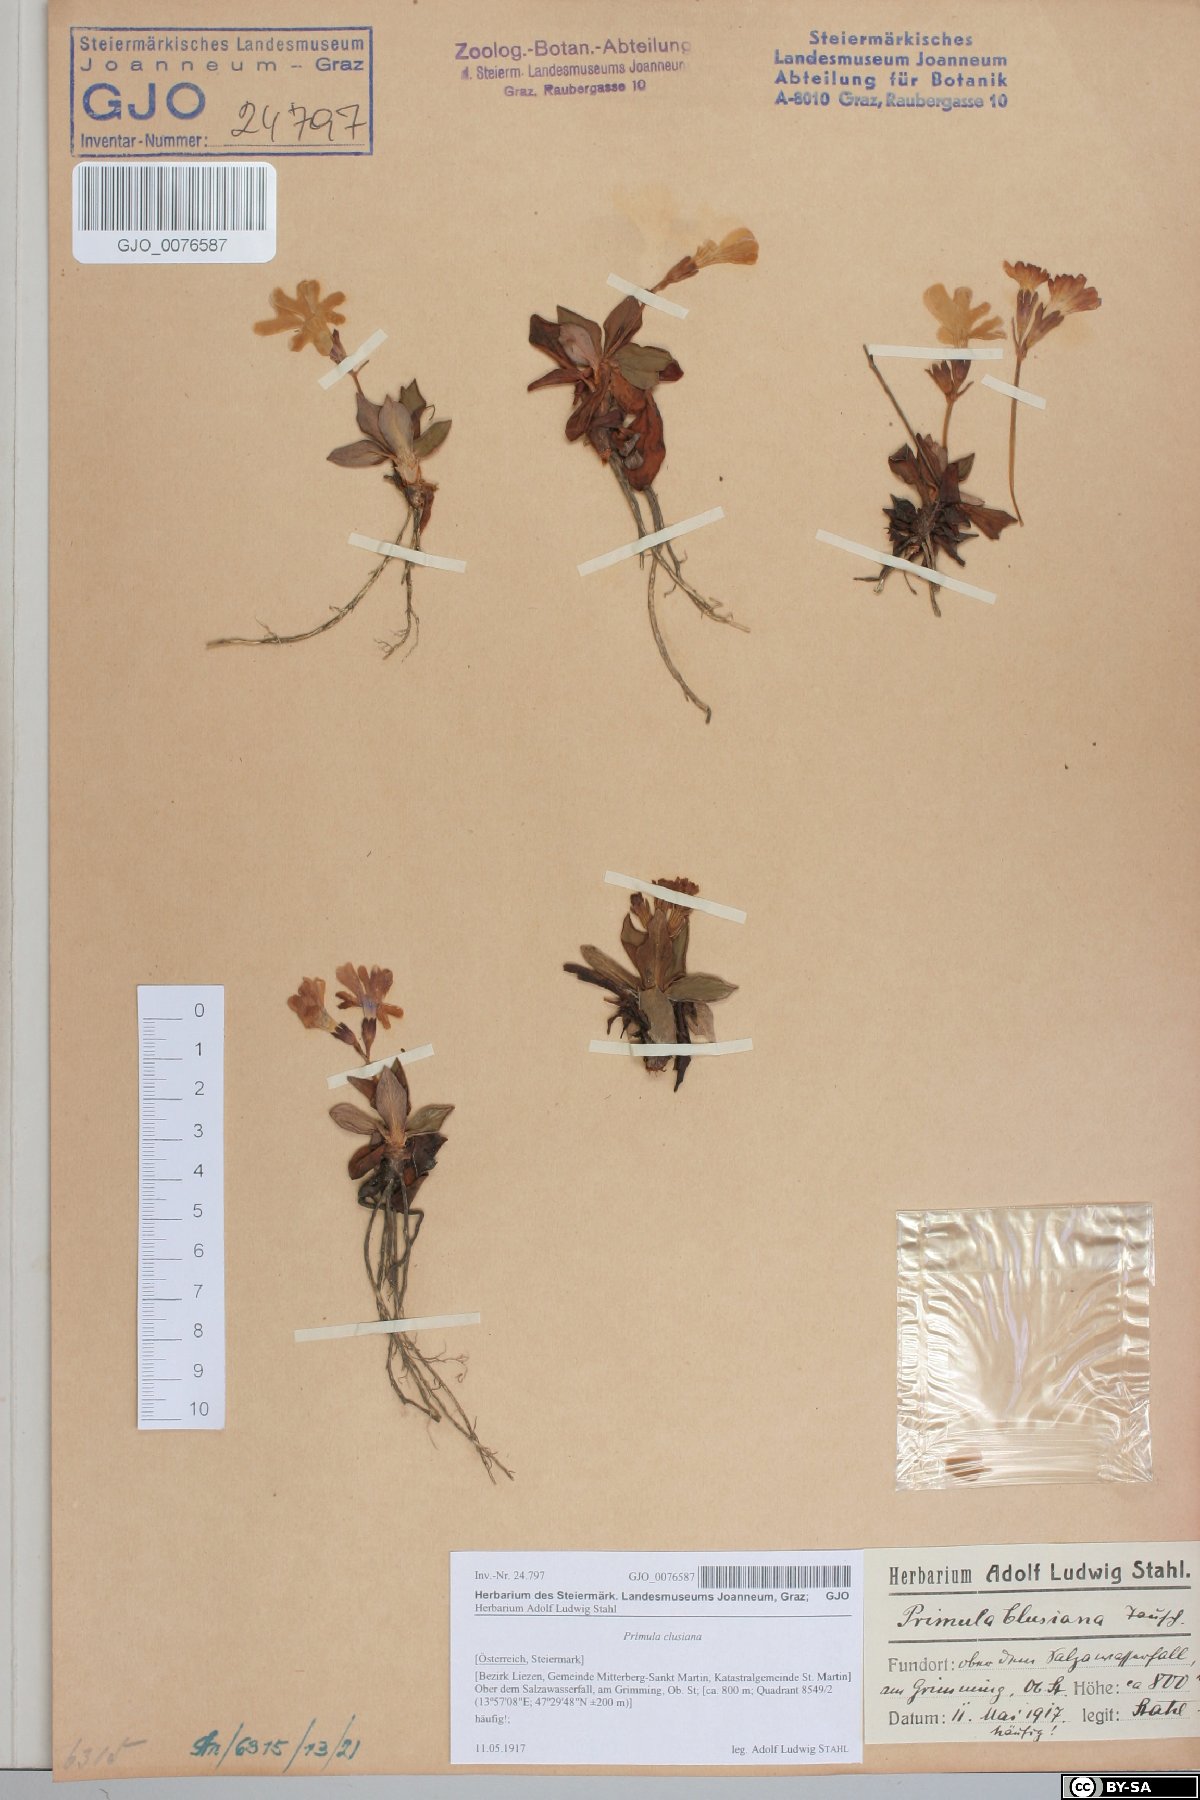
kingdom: Plantae
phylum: Tracheophyta
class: Magnoliopsida
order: Ericales
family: Primulaceae
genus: Primula
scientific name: Primula clusiana
